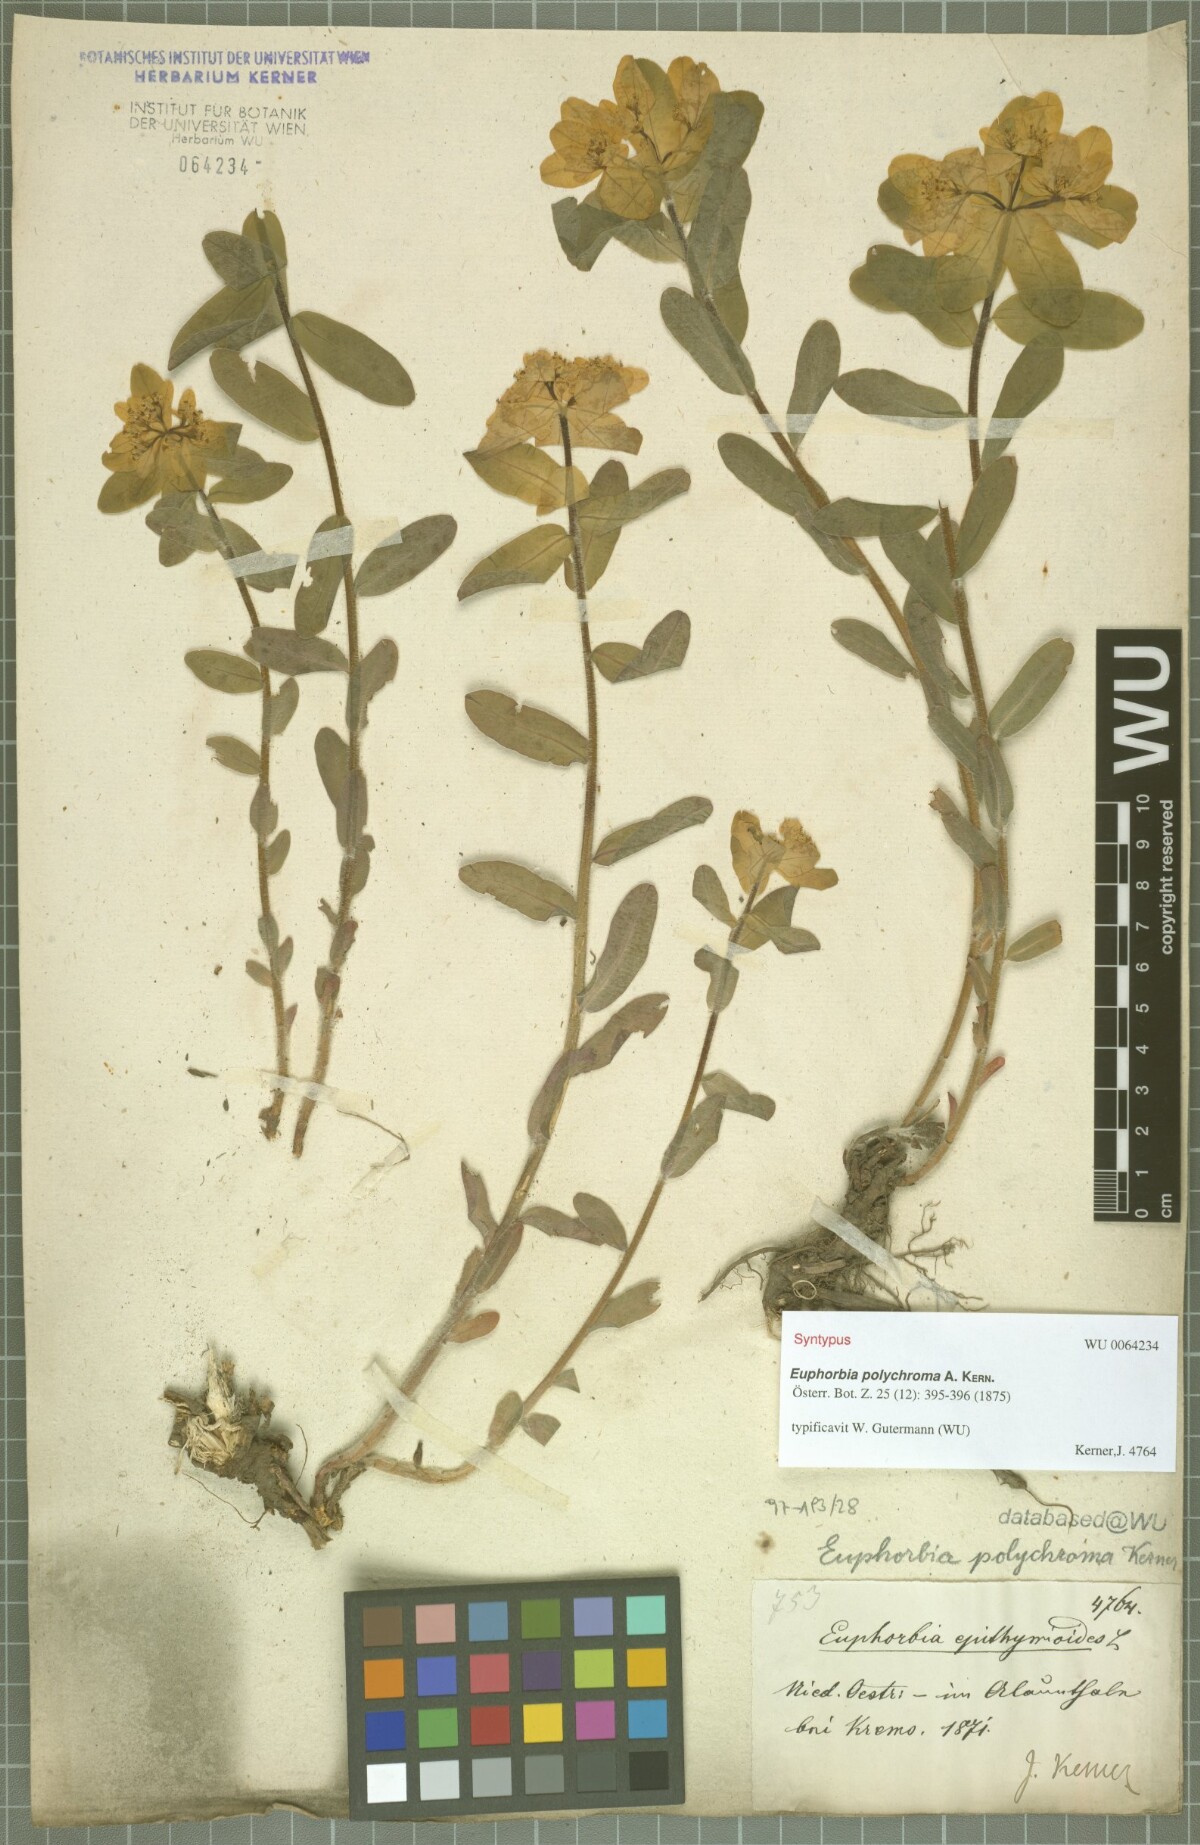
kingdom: Plantae
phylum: Tracheophyta
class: Magnoliopsida
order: Malpighiales
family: Euphorbiaceae
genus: Euphorbia
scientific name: Euphorbia epithymoides
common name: Cushion spurge
